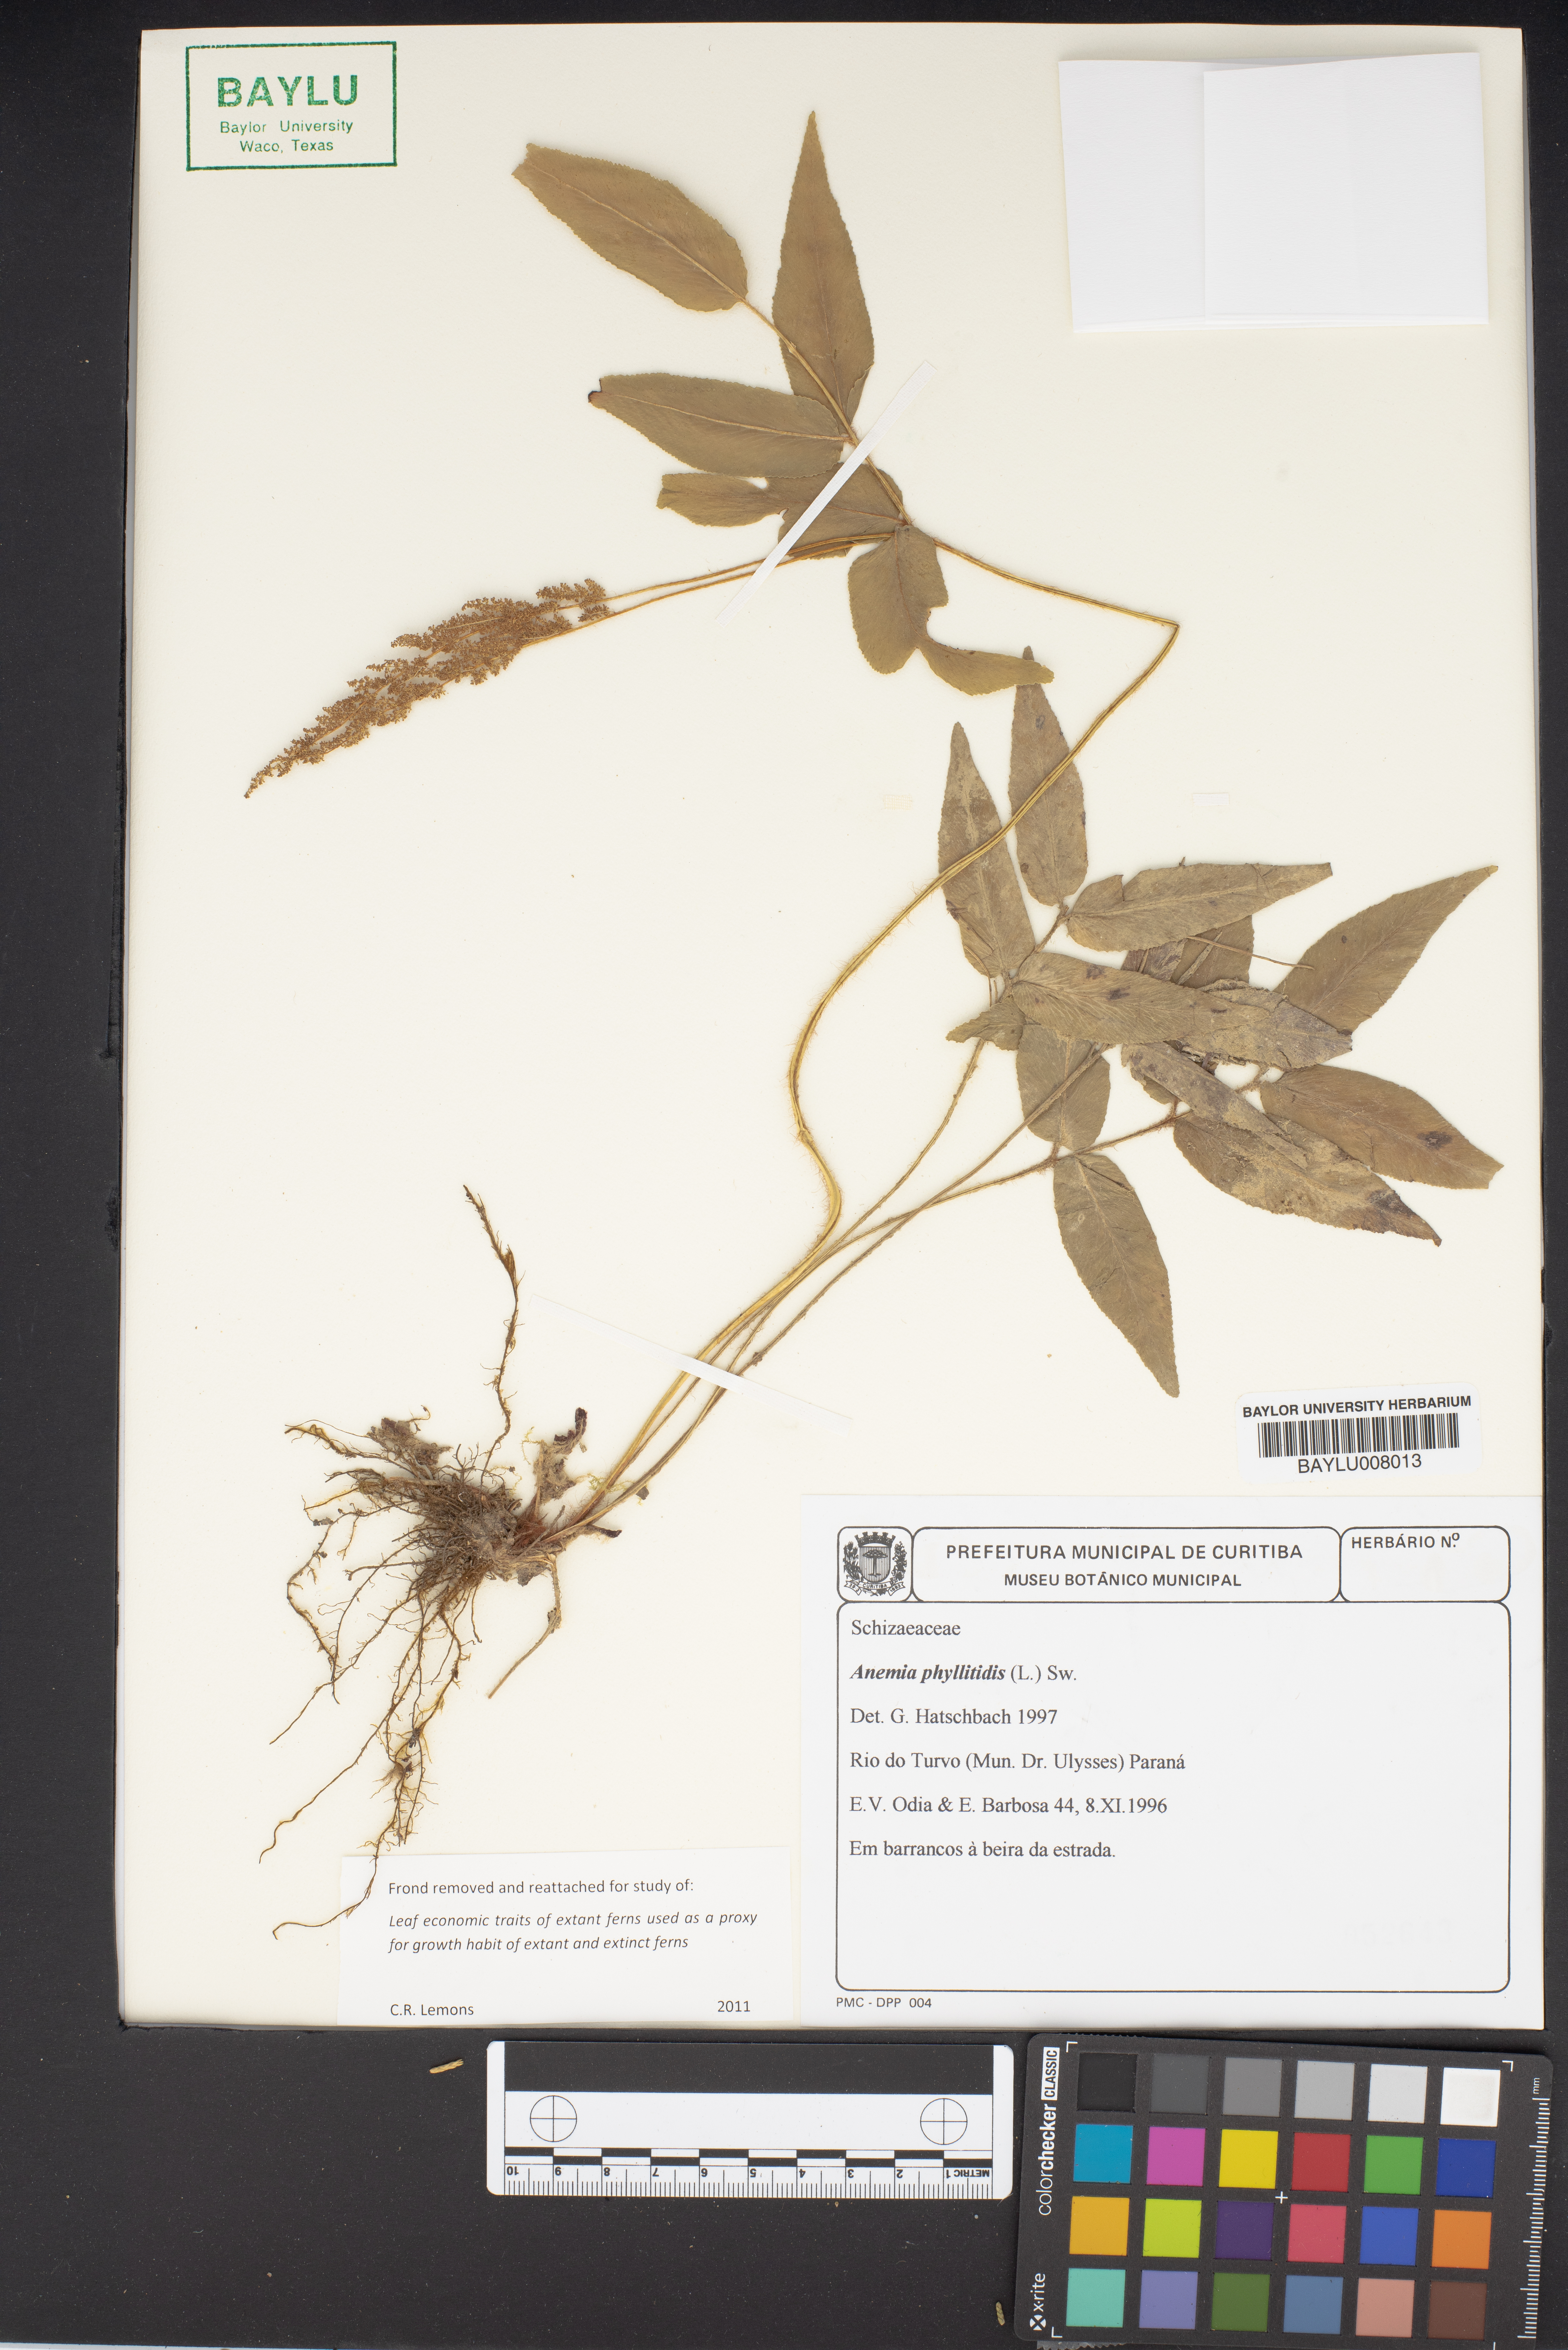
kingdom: Plantae
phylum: Tracheophyta
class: Polypodiopsida
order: Schizaeales
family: Anemiaceae
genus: Anemia
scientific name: Anemia phyllitidis
